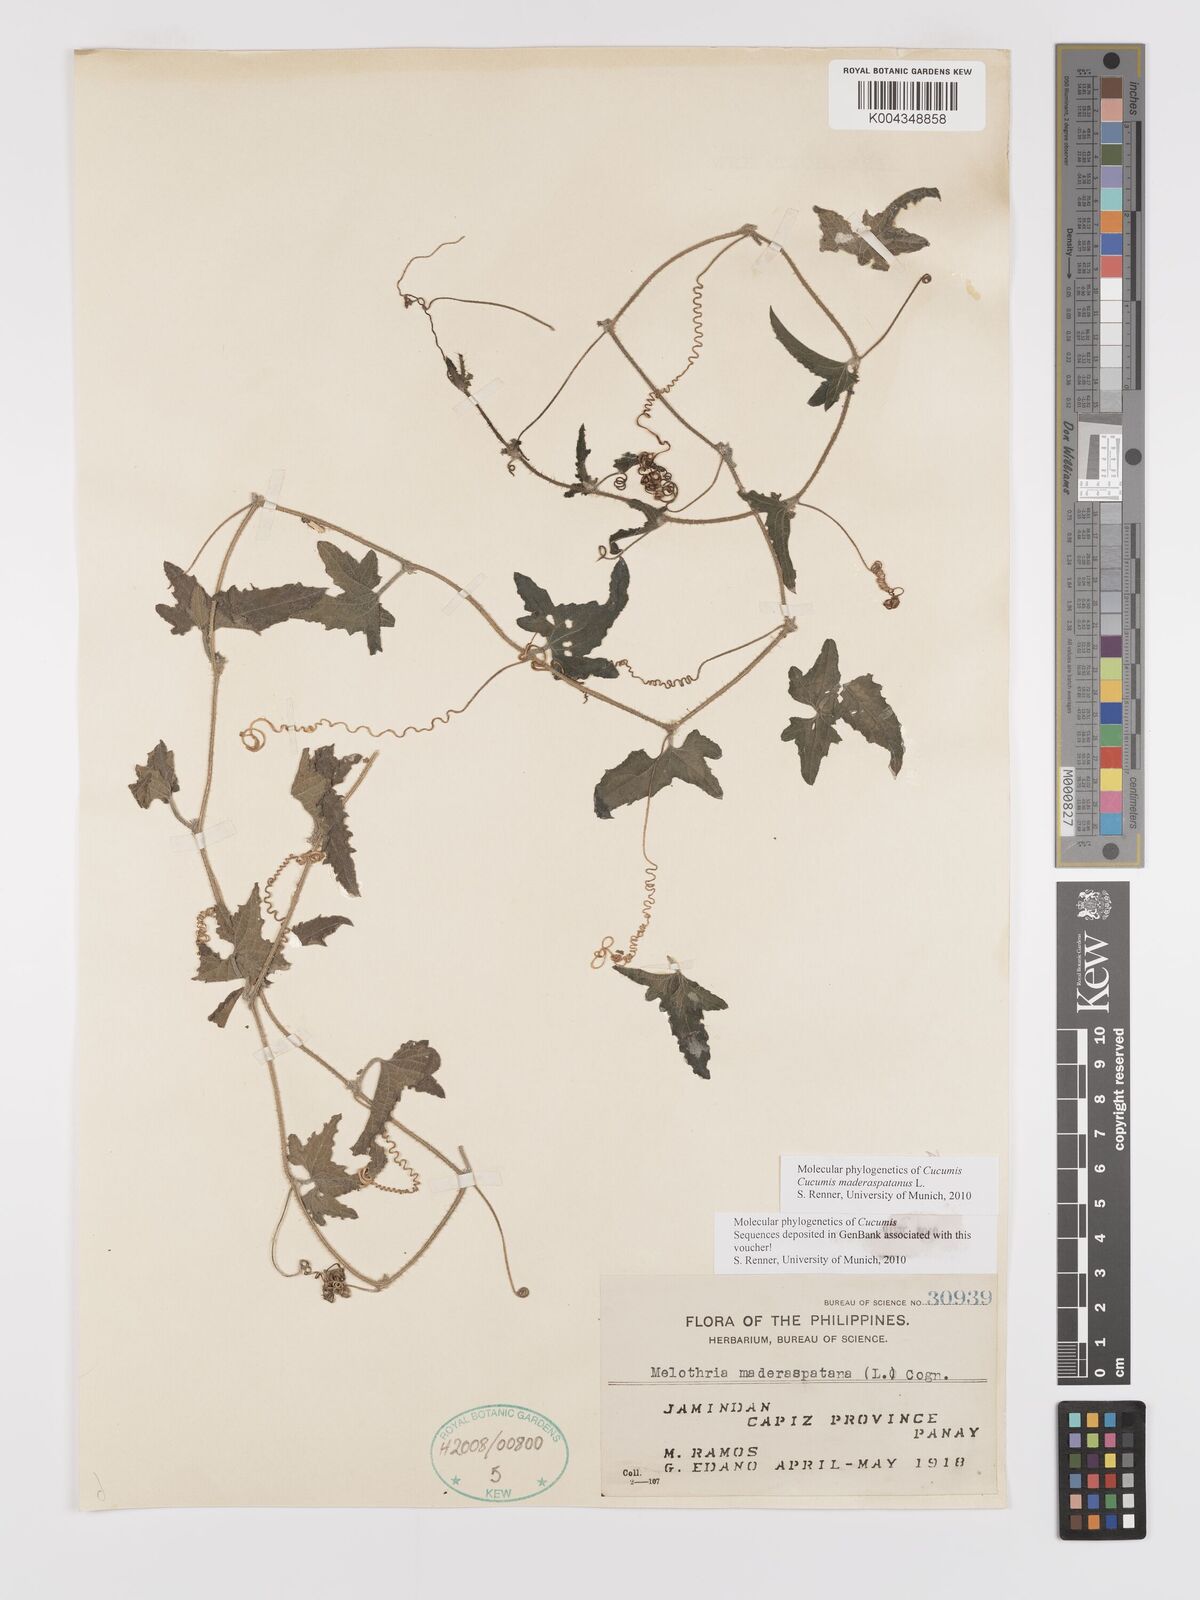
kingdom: Plantae
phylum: Tracheophyta
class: Magnoliopsida
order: Cucurbitales
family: Cucurbitaceae
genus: Cucumis
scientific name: Cucumis maderaspatanus
